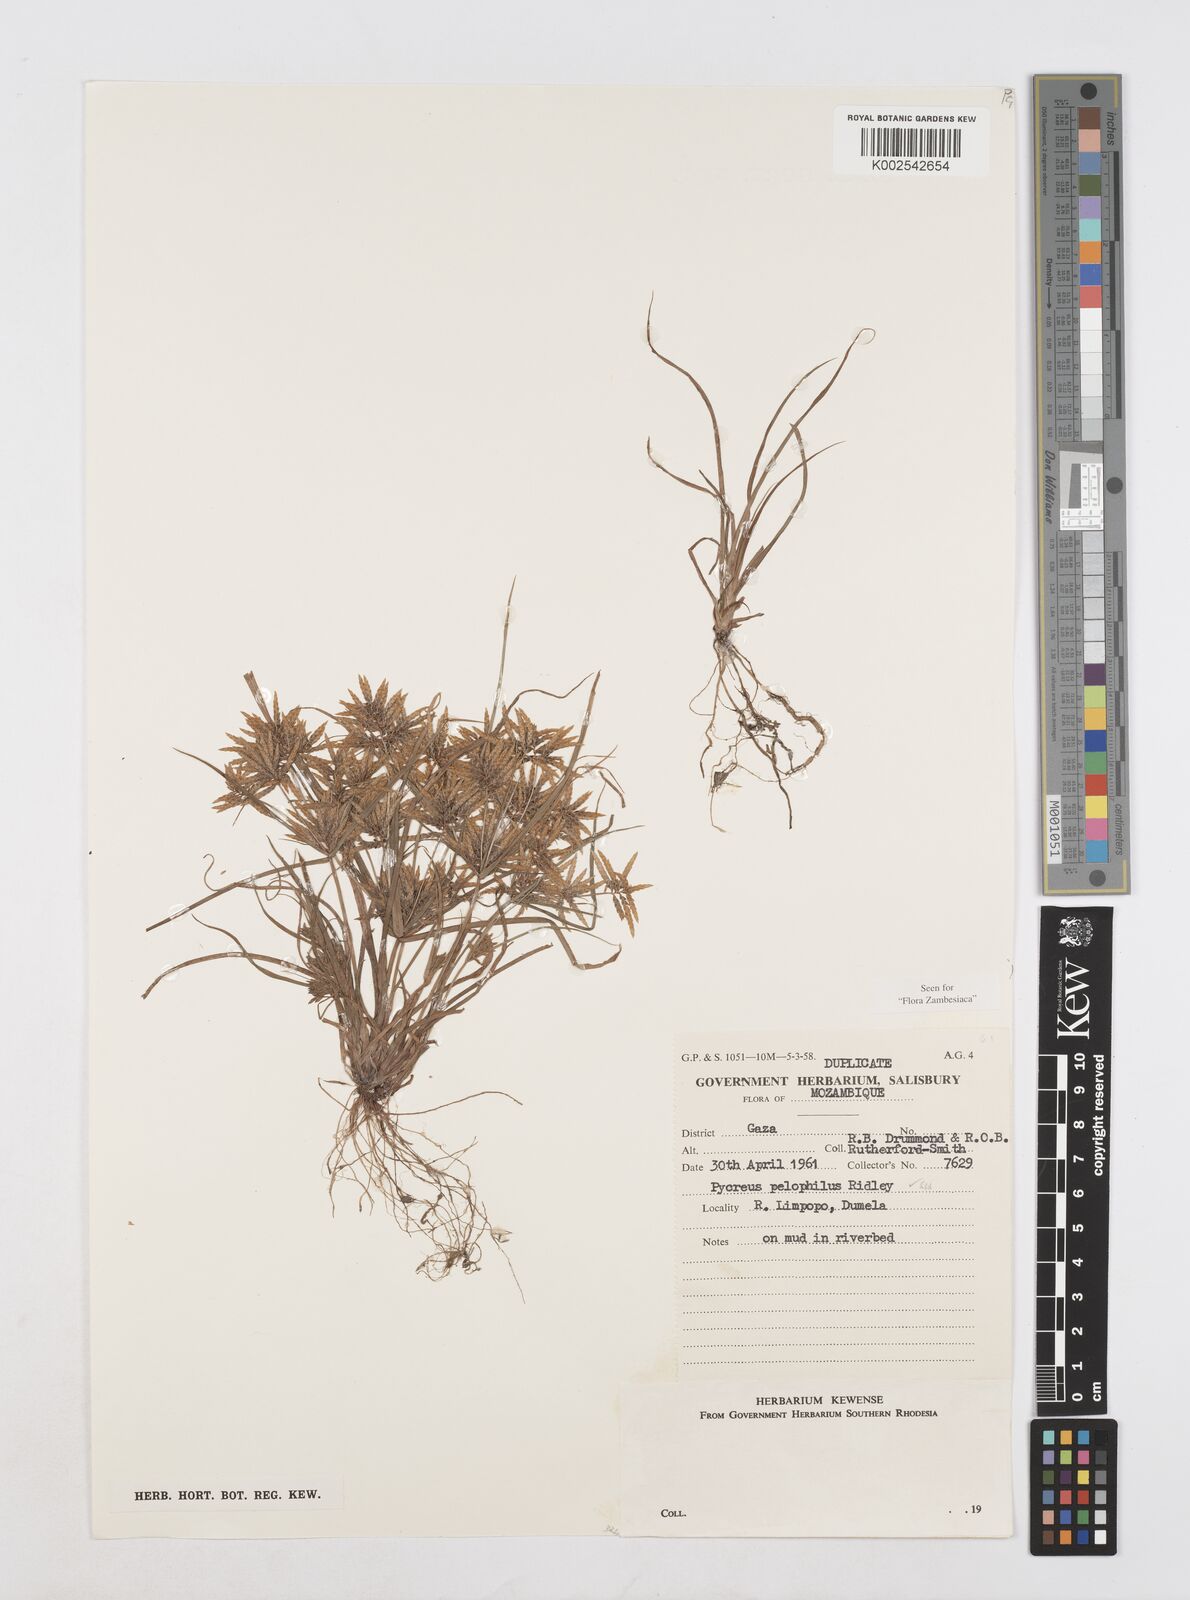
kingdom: Plantae
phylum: Tracheophyta
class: Liliopsida
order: Poales
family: Cyperaceae
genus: Cyperus
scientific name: Cyperus pelophilus
